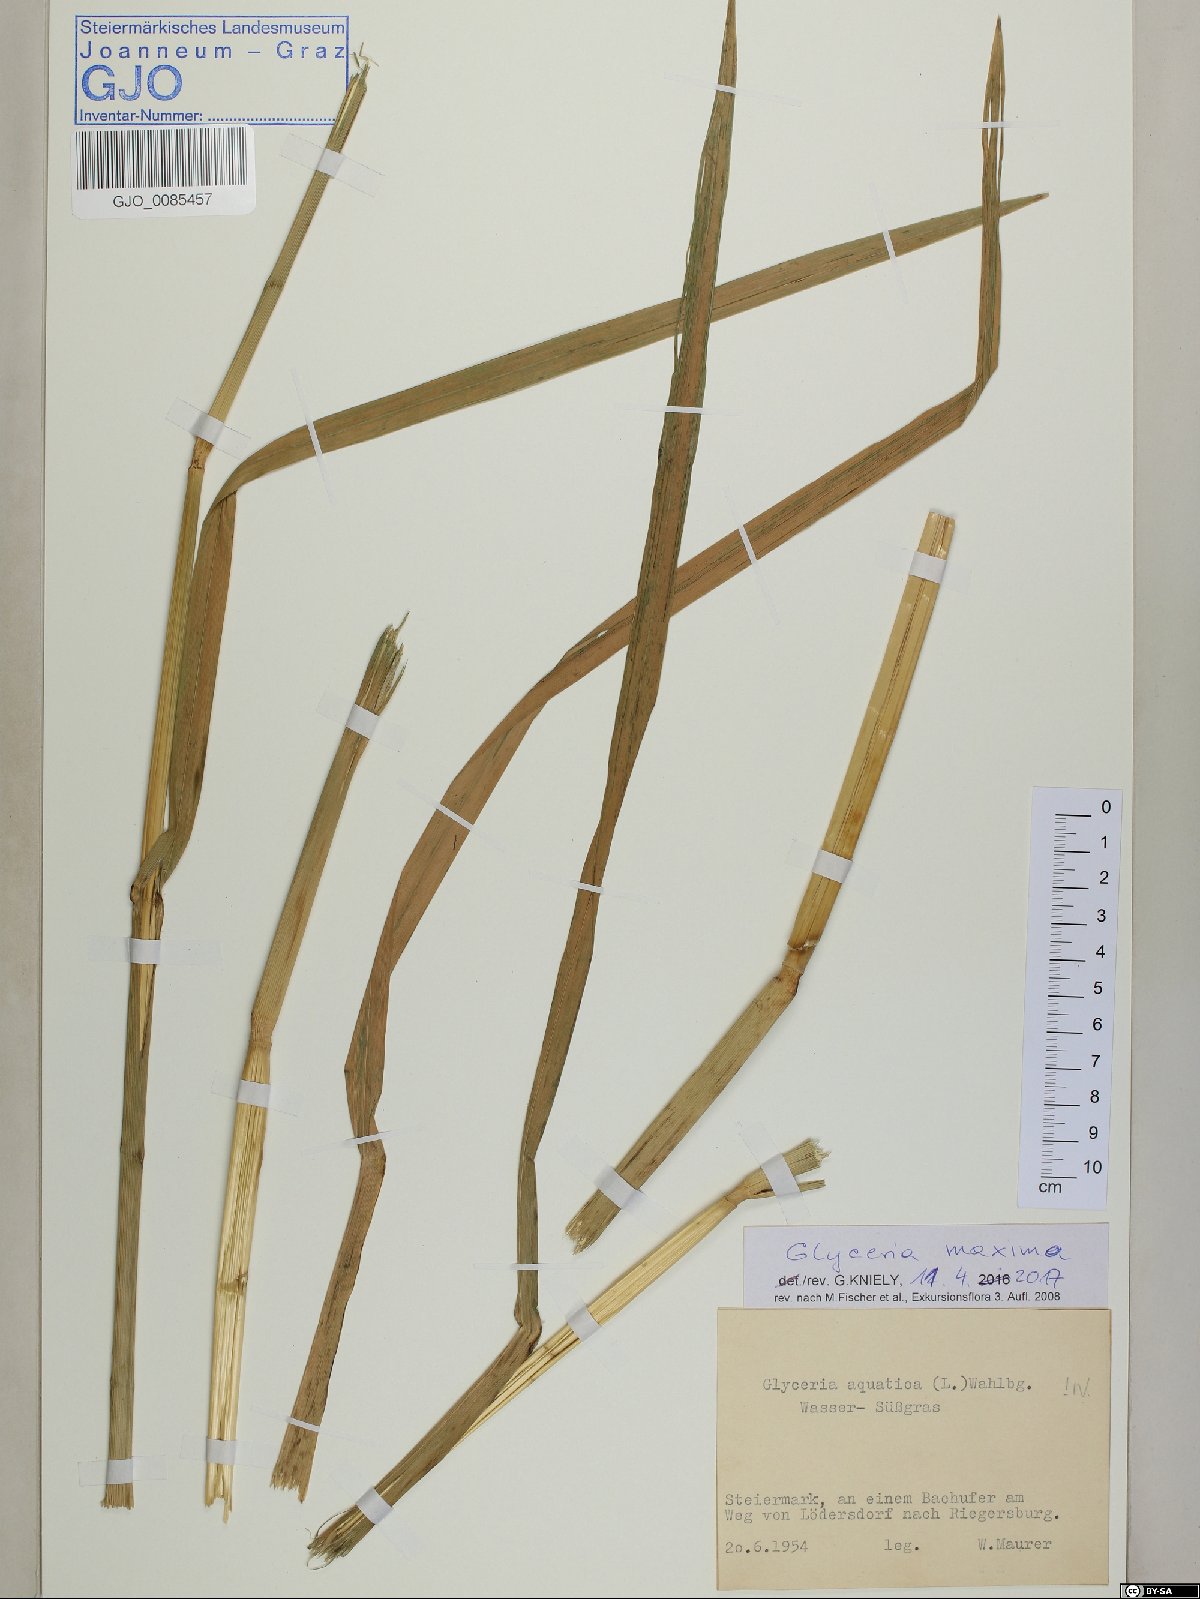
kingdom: Plantae
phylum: Tracheophyta
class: Liliopsida
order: Poales
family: Poaceae
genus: Glyceria
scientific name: Glyceria maxima
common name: Reed mannagrass
